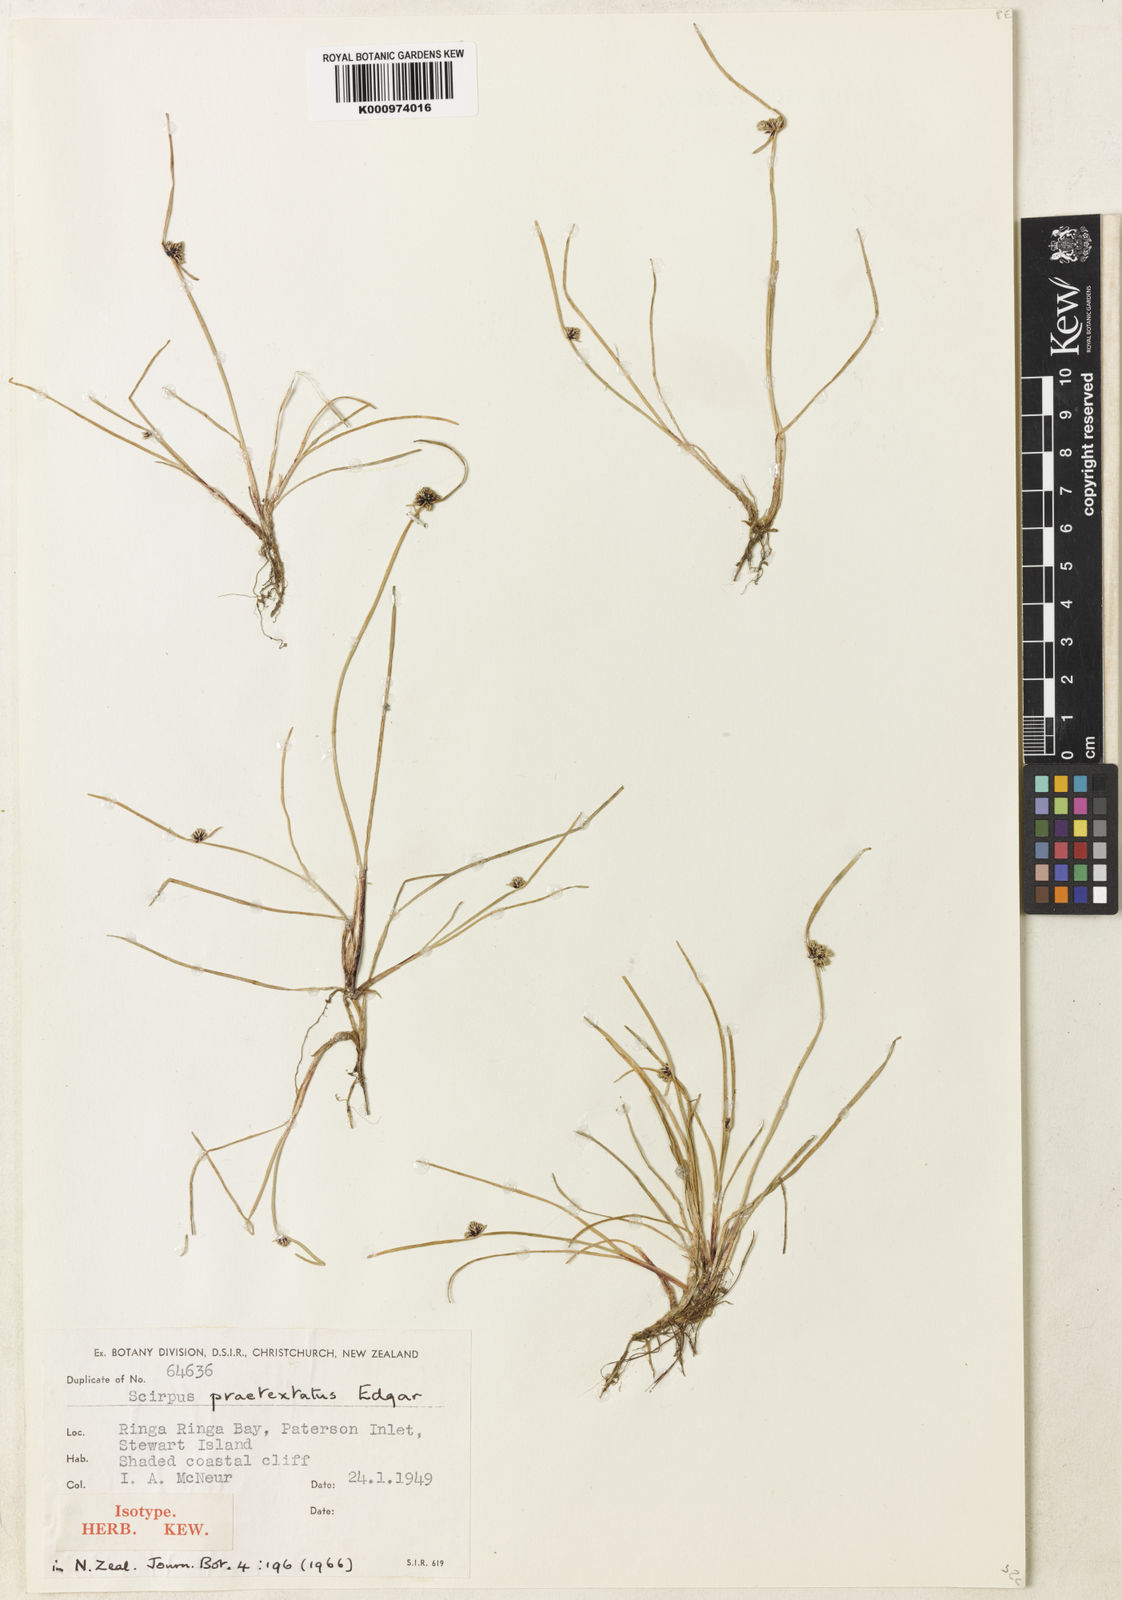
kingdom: Plantae
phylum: Tracheophyta
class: Liliopsida
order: Poales
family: Cyperaceae
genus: Isolepis
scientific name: Isolepis
